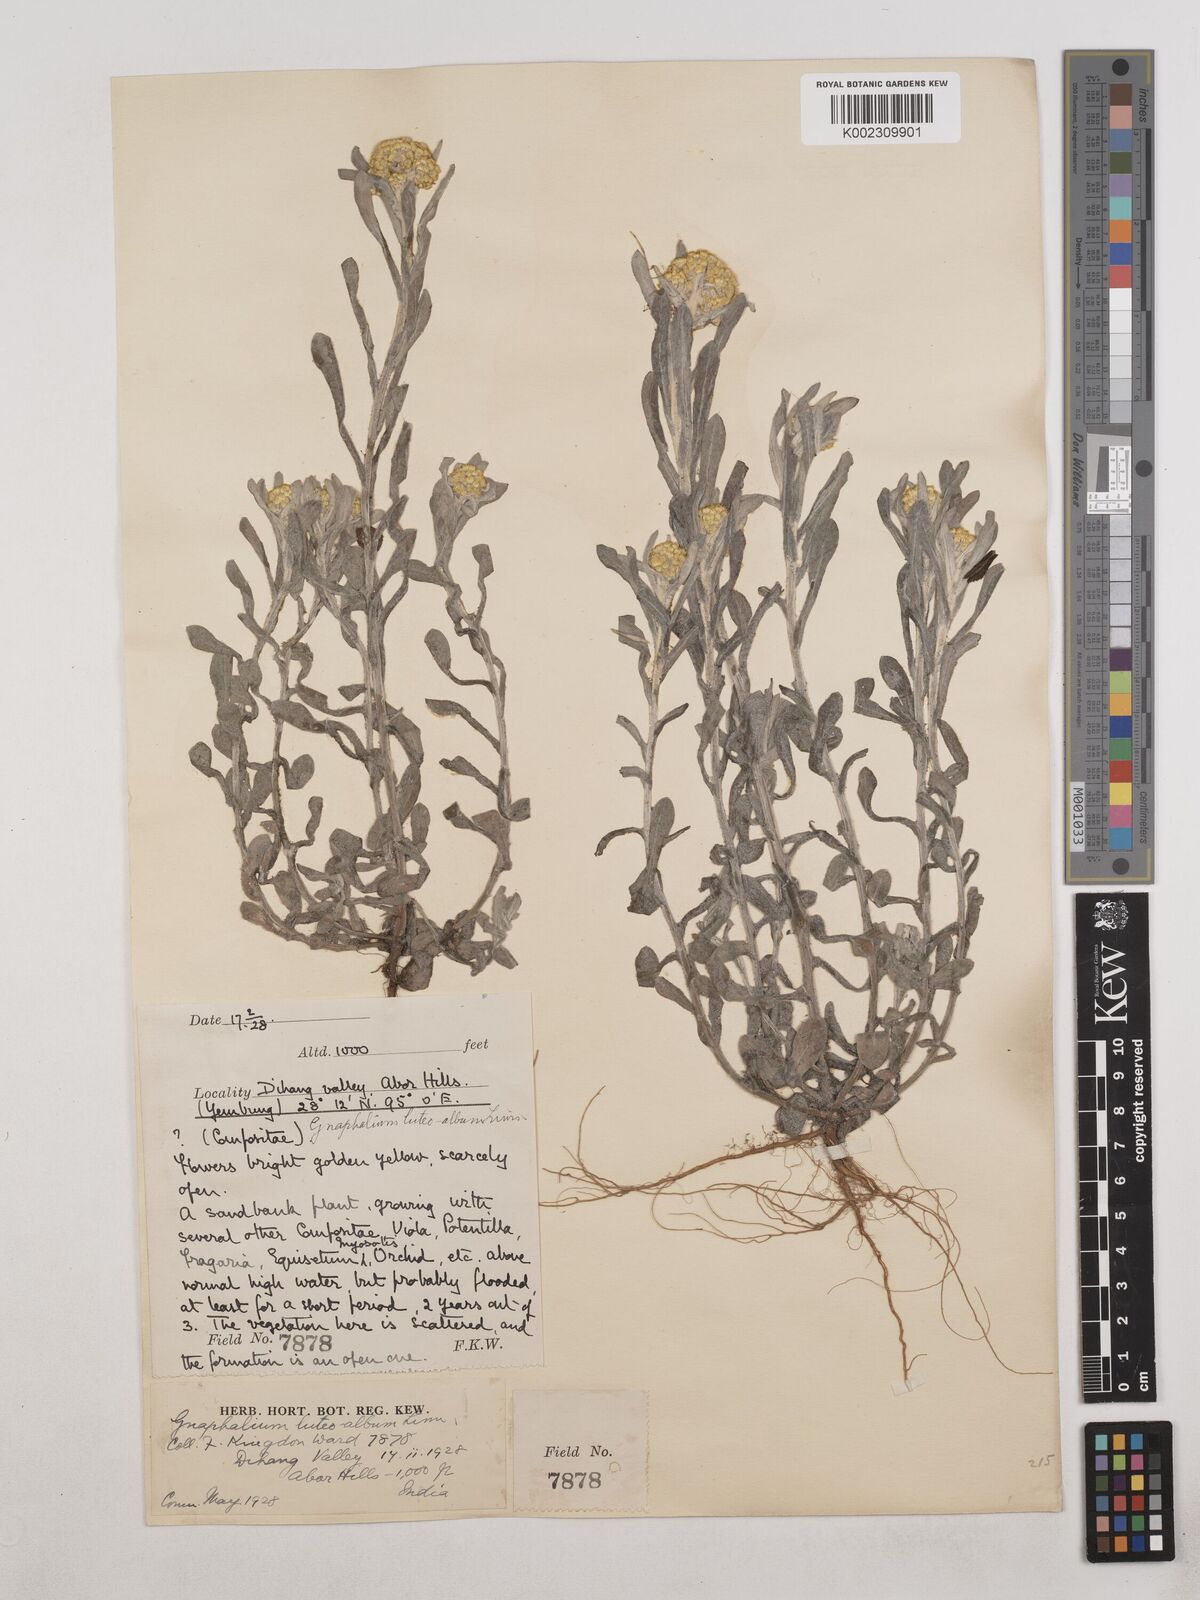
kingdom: Plantae
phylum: Tracheophyta
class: Magnoliopsida
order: Asterales
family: Asteraceae
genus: Pseudognaphalium
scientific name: Pseudognaphalium affine
